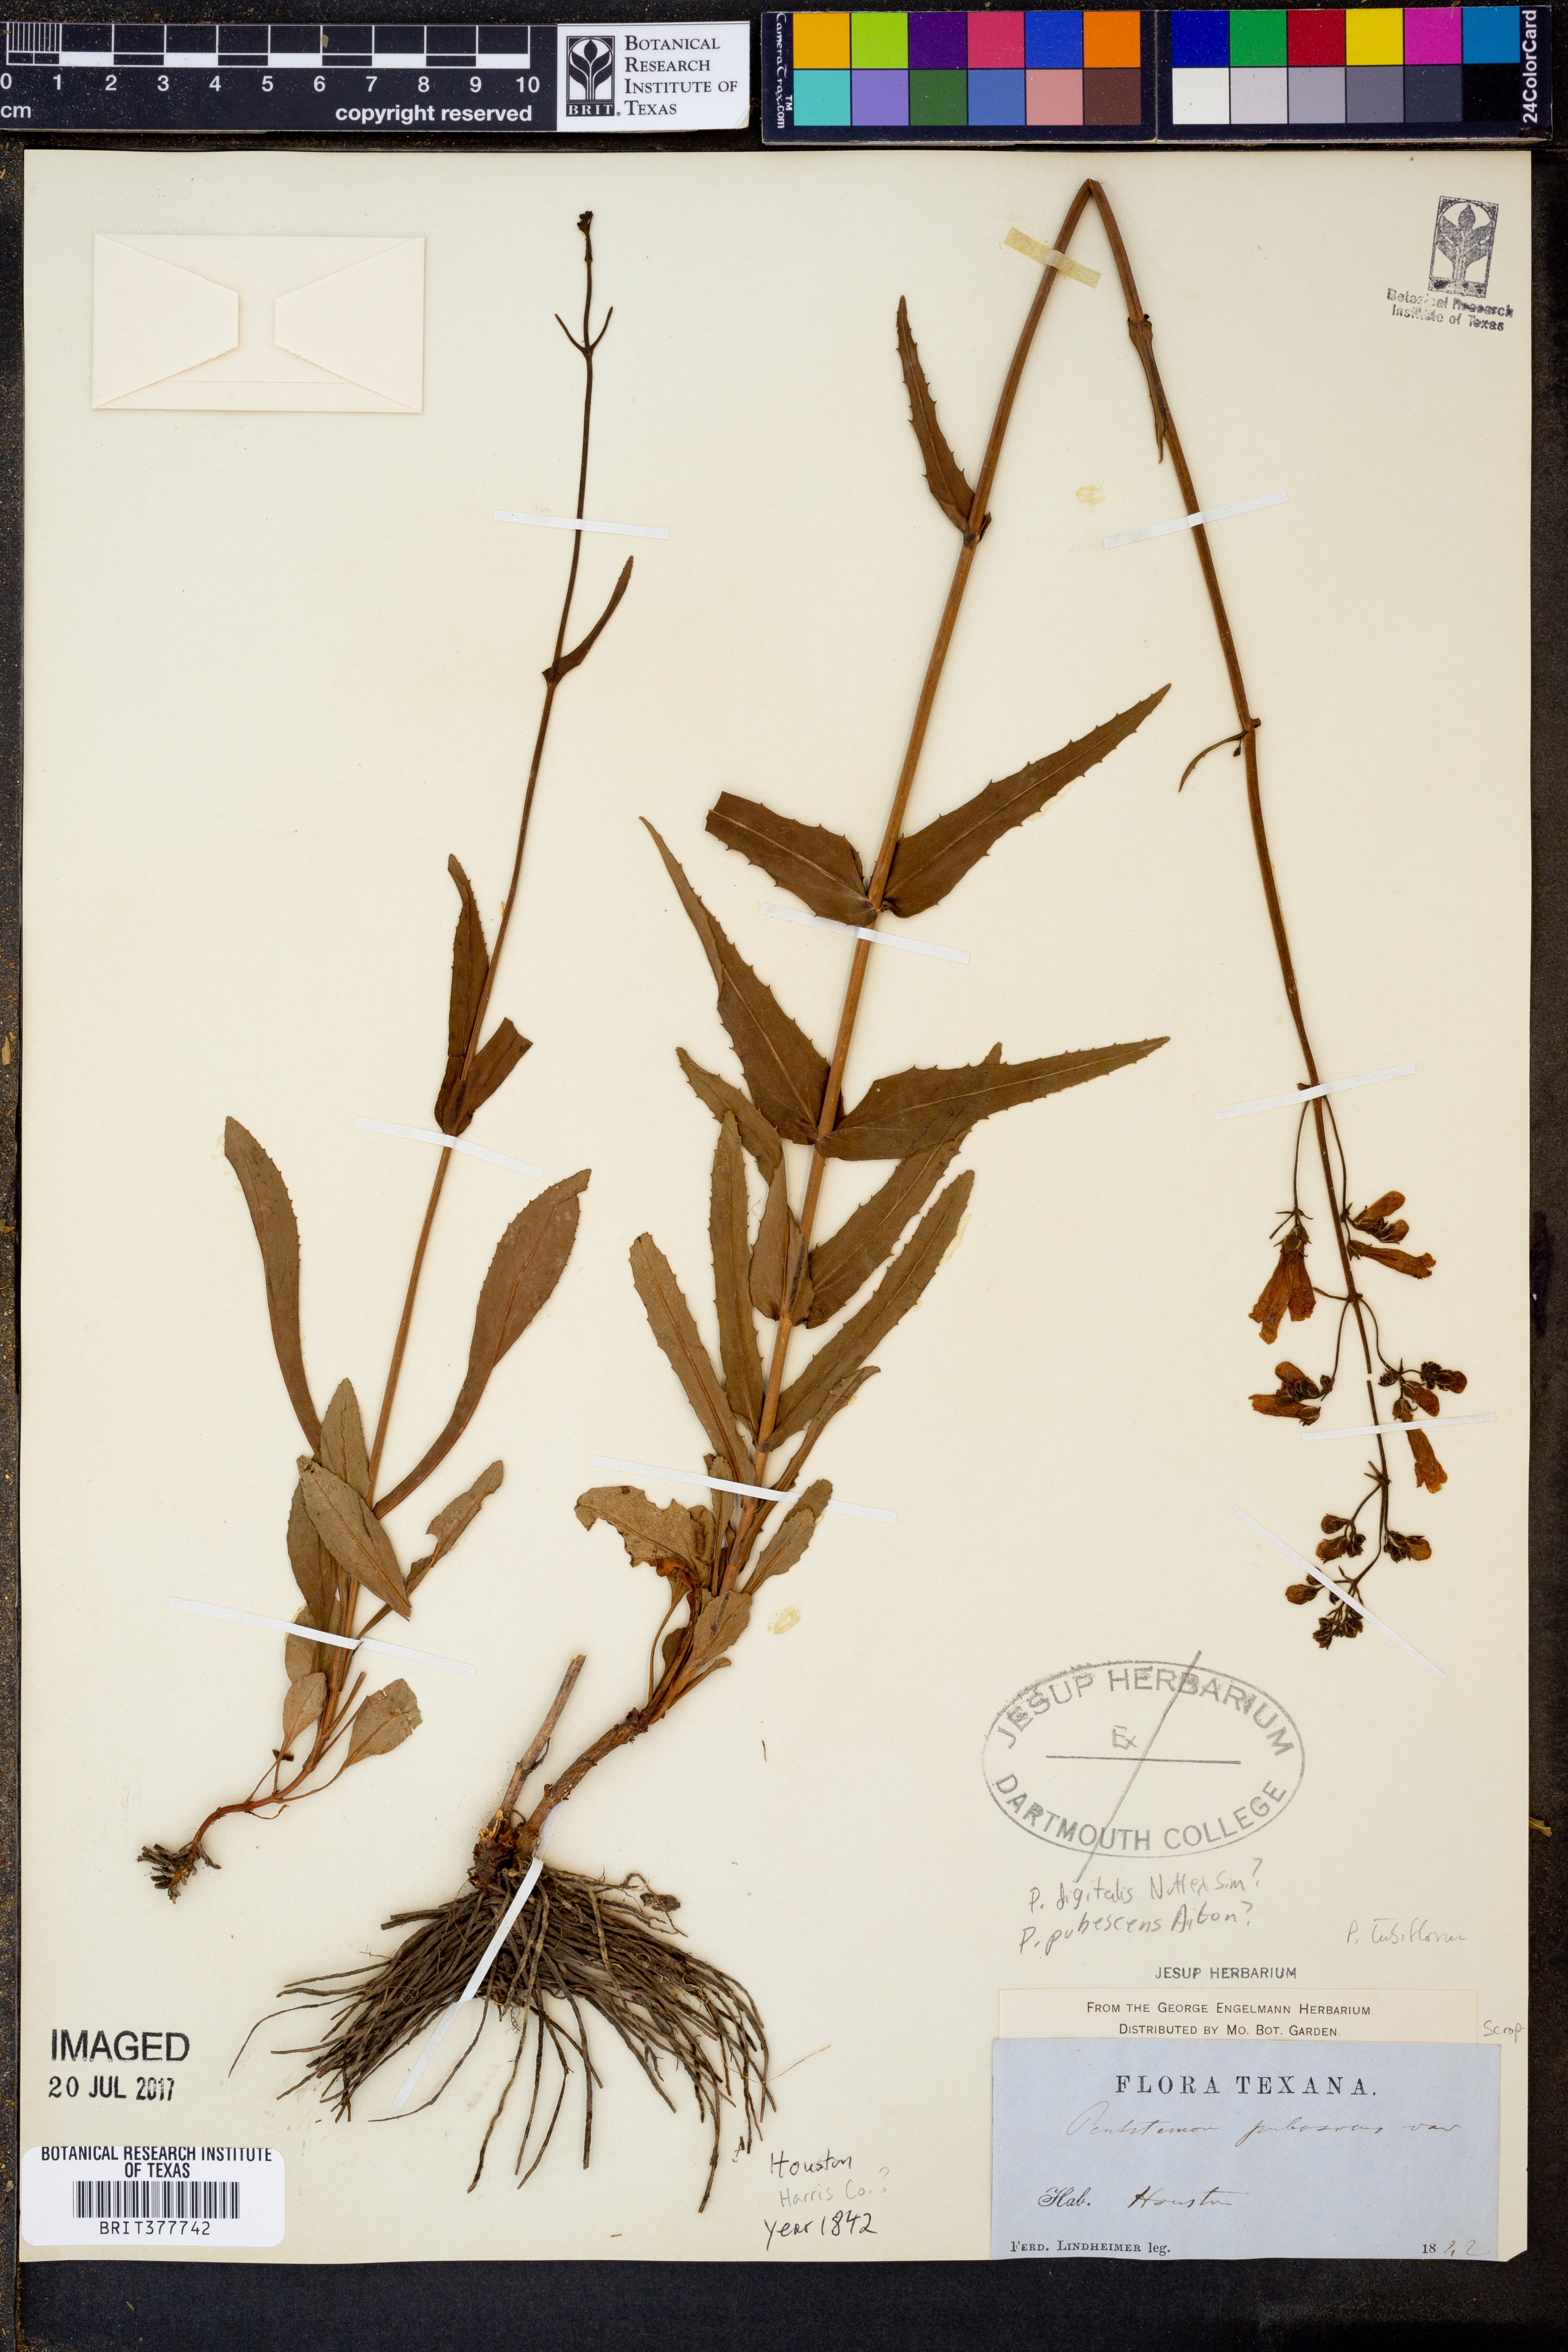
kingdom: Plantae
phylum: Tracheophyta
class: Magnoliopsida
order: Lamiales
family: Plantaginaceae
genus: Penstemon
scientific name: Penstemon digitalis
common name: Foxglove beardtongue
